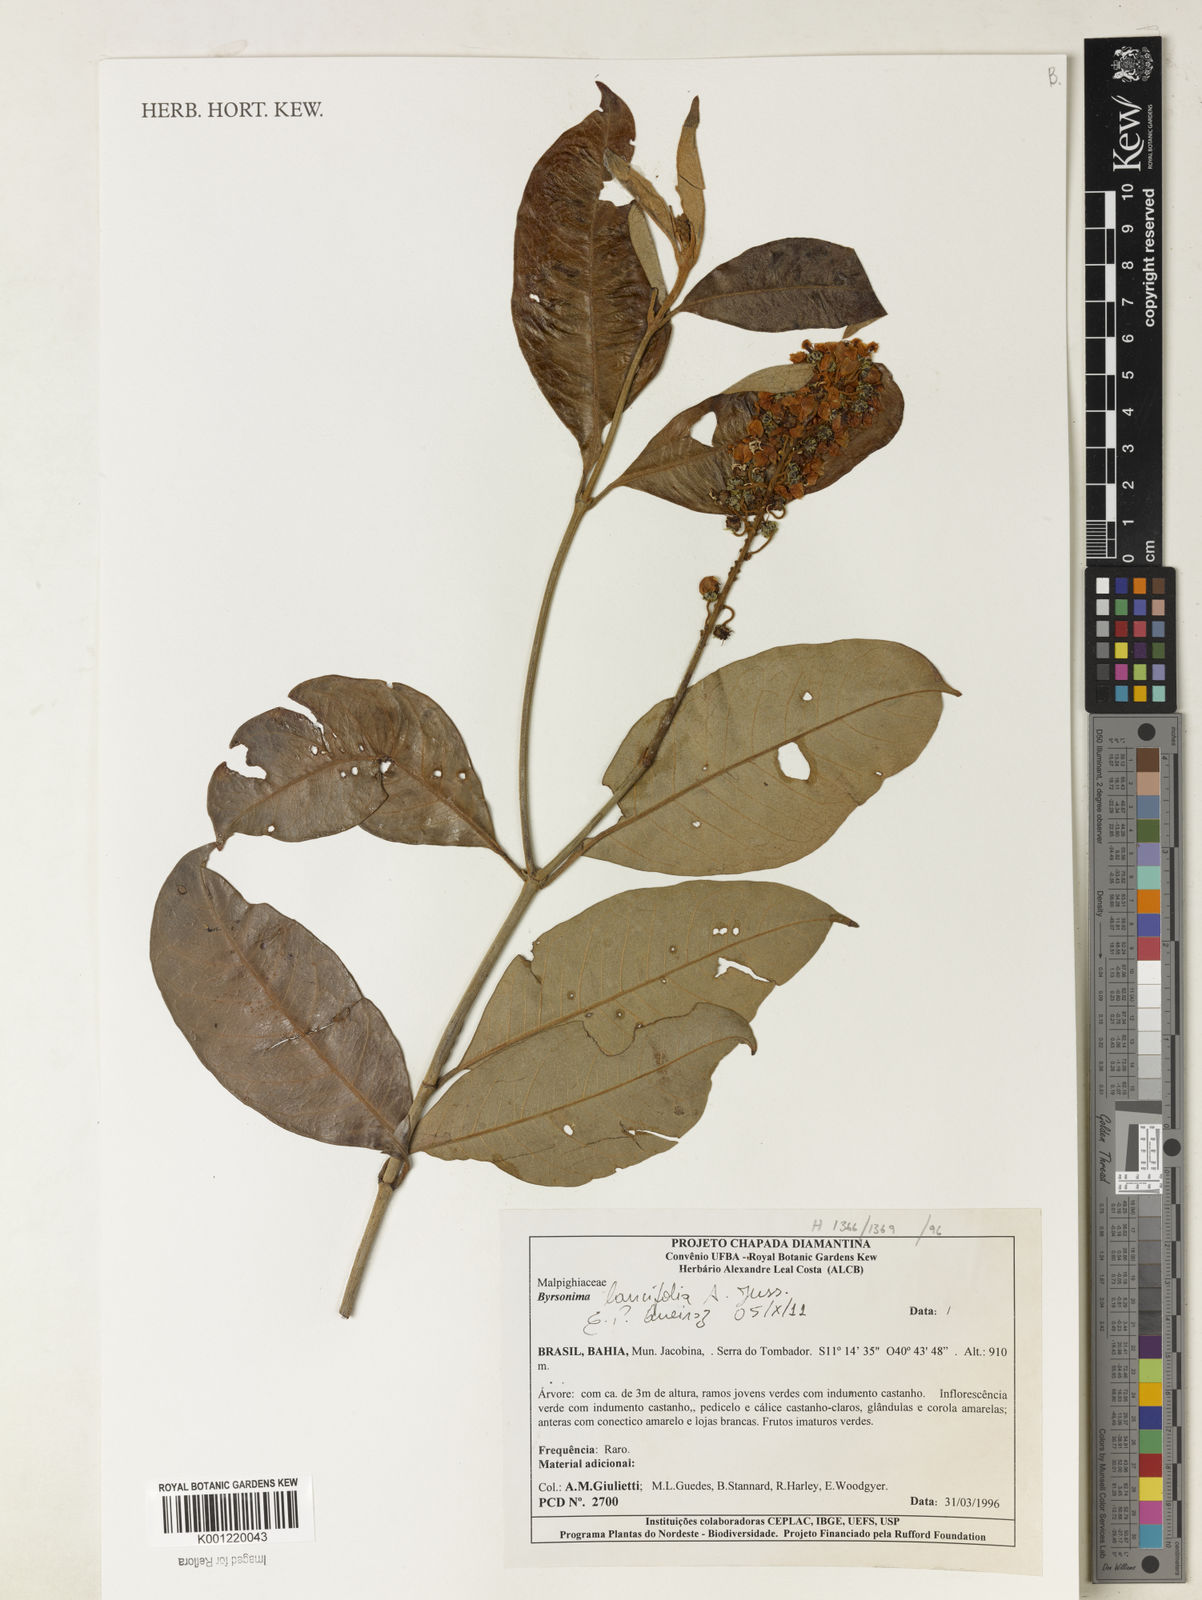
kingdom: Plantae
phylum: Tracheophyta
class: Magnoliopsida
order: Malpighiales
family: Malpighiaceae
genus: Byrsonima
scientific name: Byrsonima lancifolia
